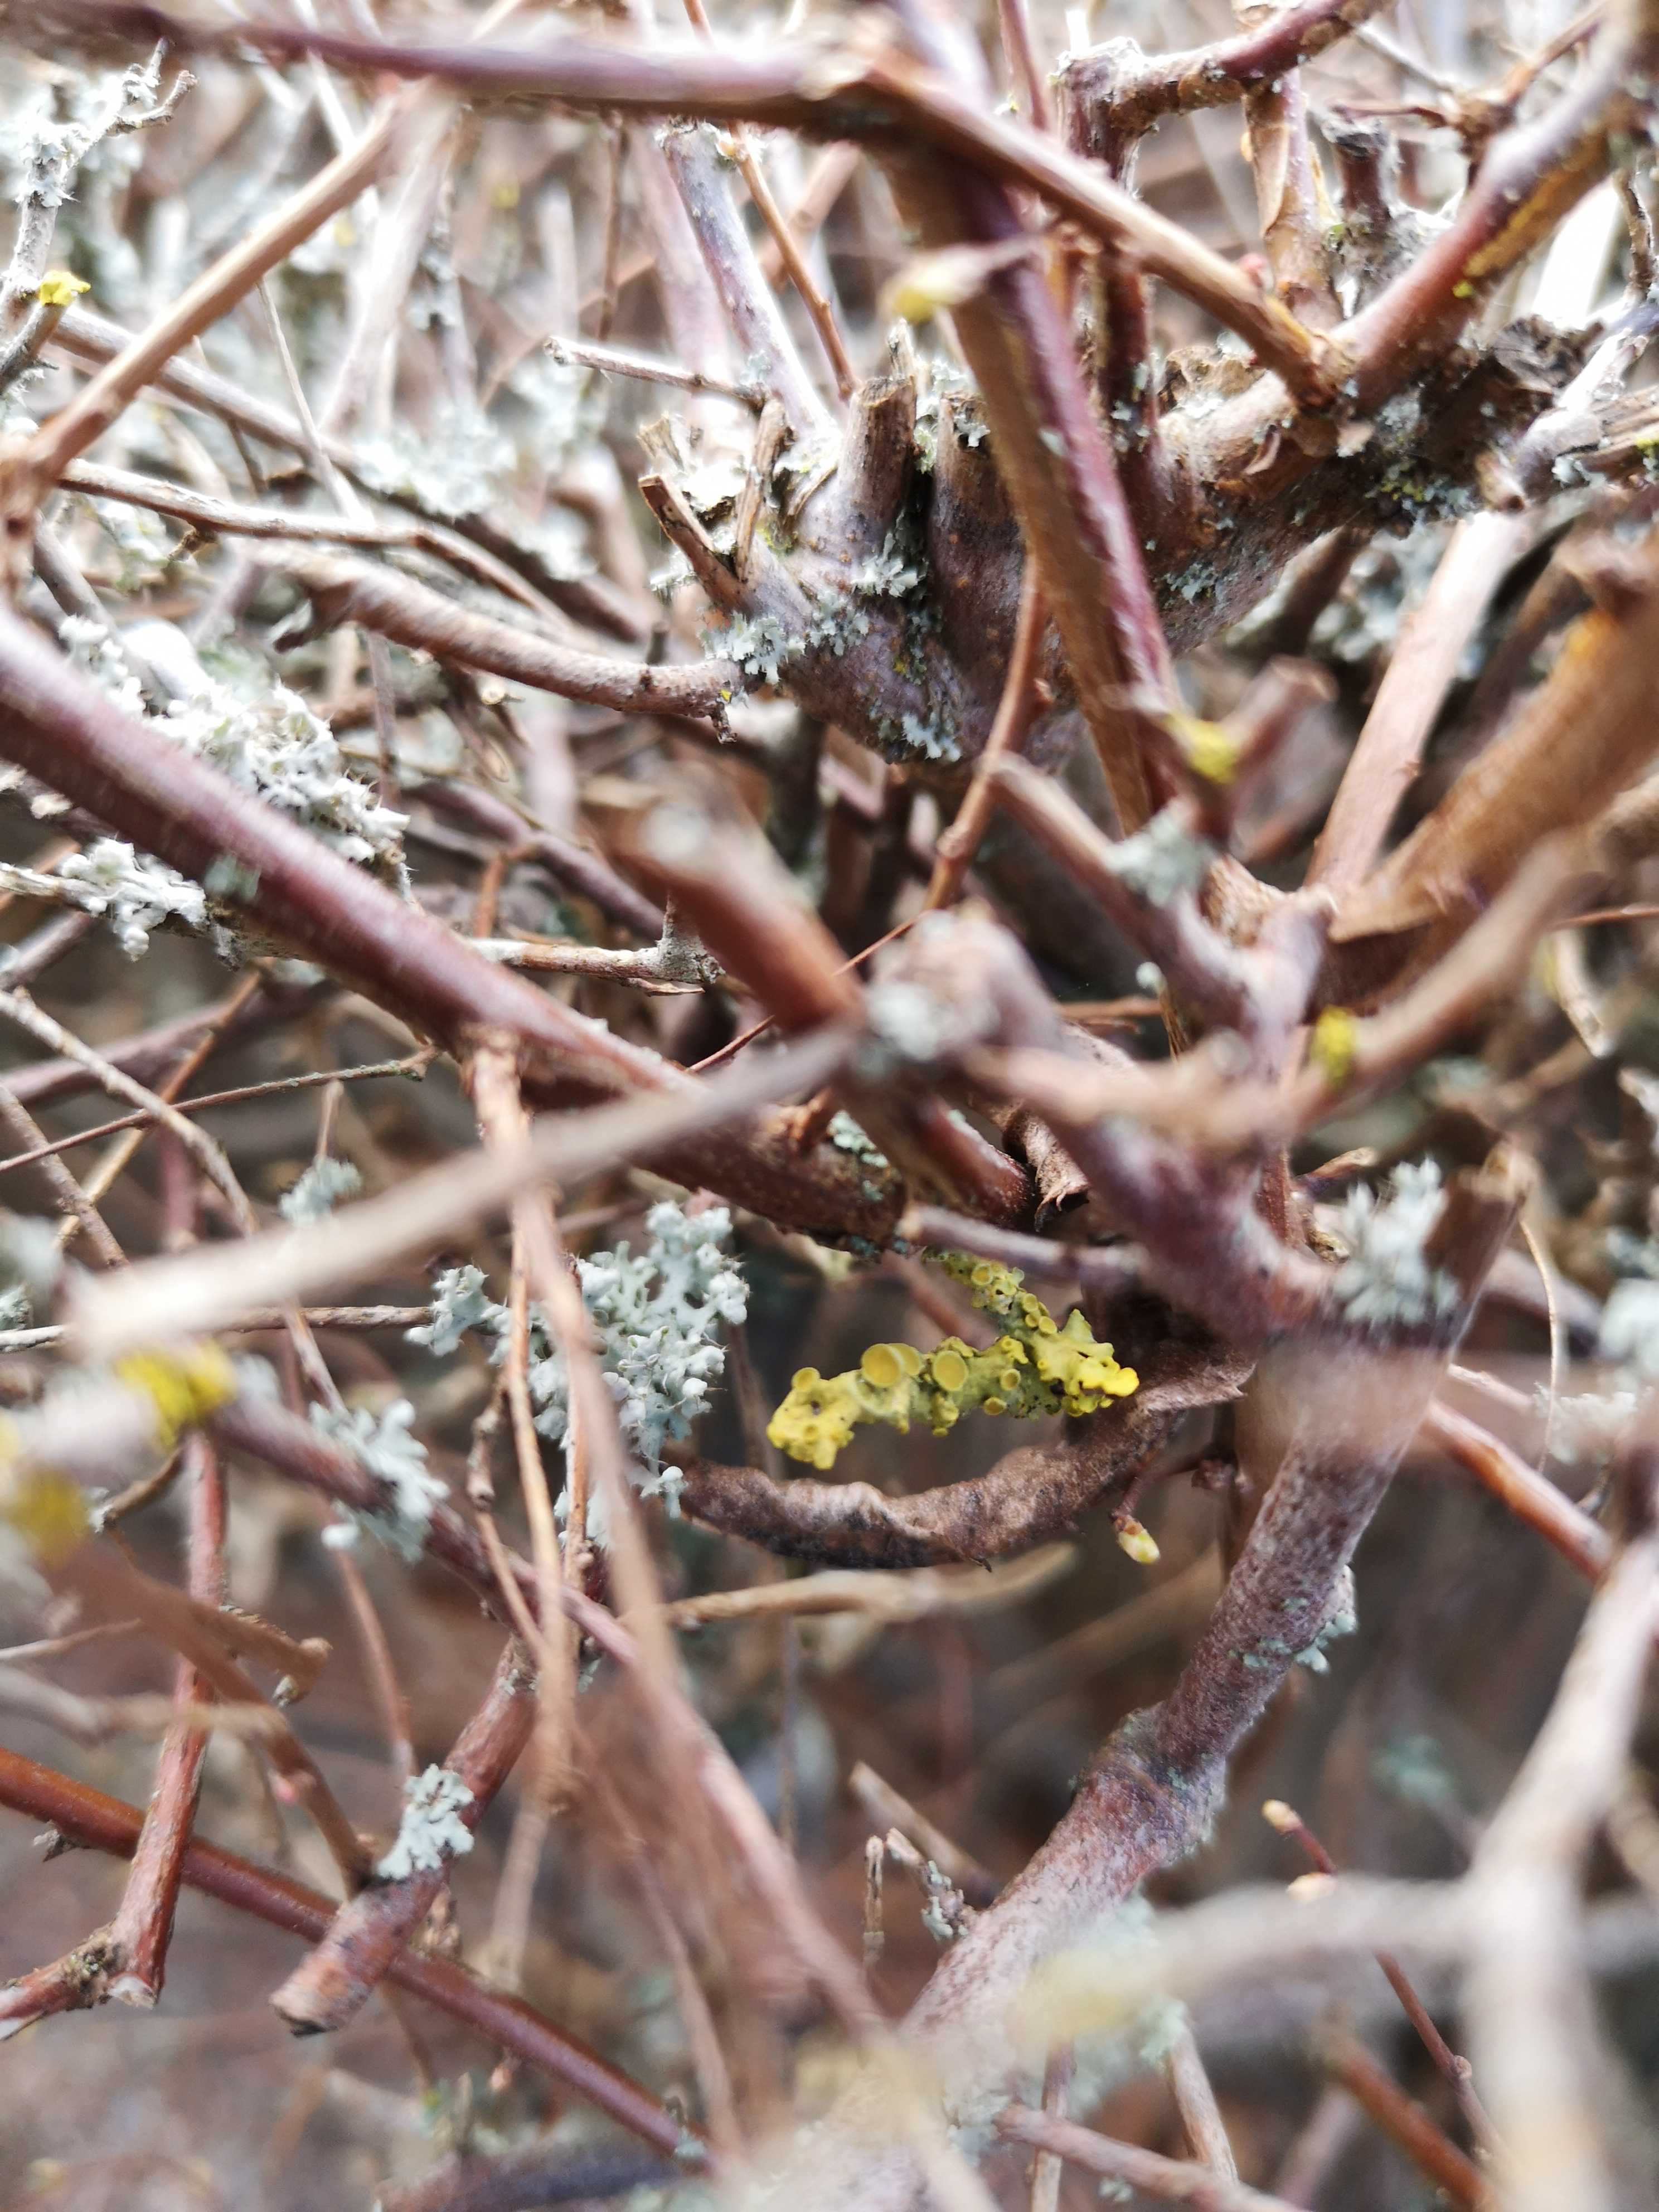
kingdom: Fungi
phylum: Ascomycota
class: Lecanoromycetes
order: Teloschistales
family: Teloschistaceae
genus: Xanthoria
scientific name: Xanthoria parietina
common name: almindelig væggelav
